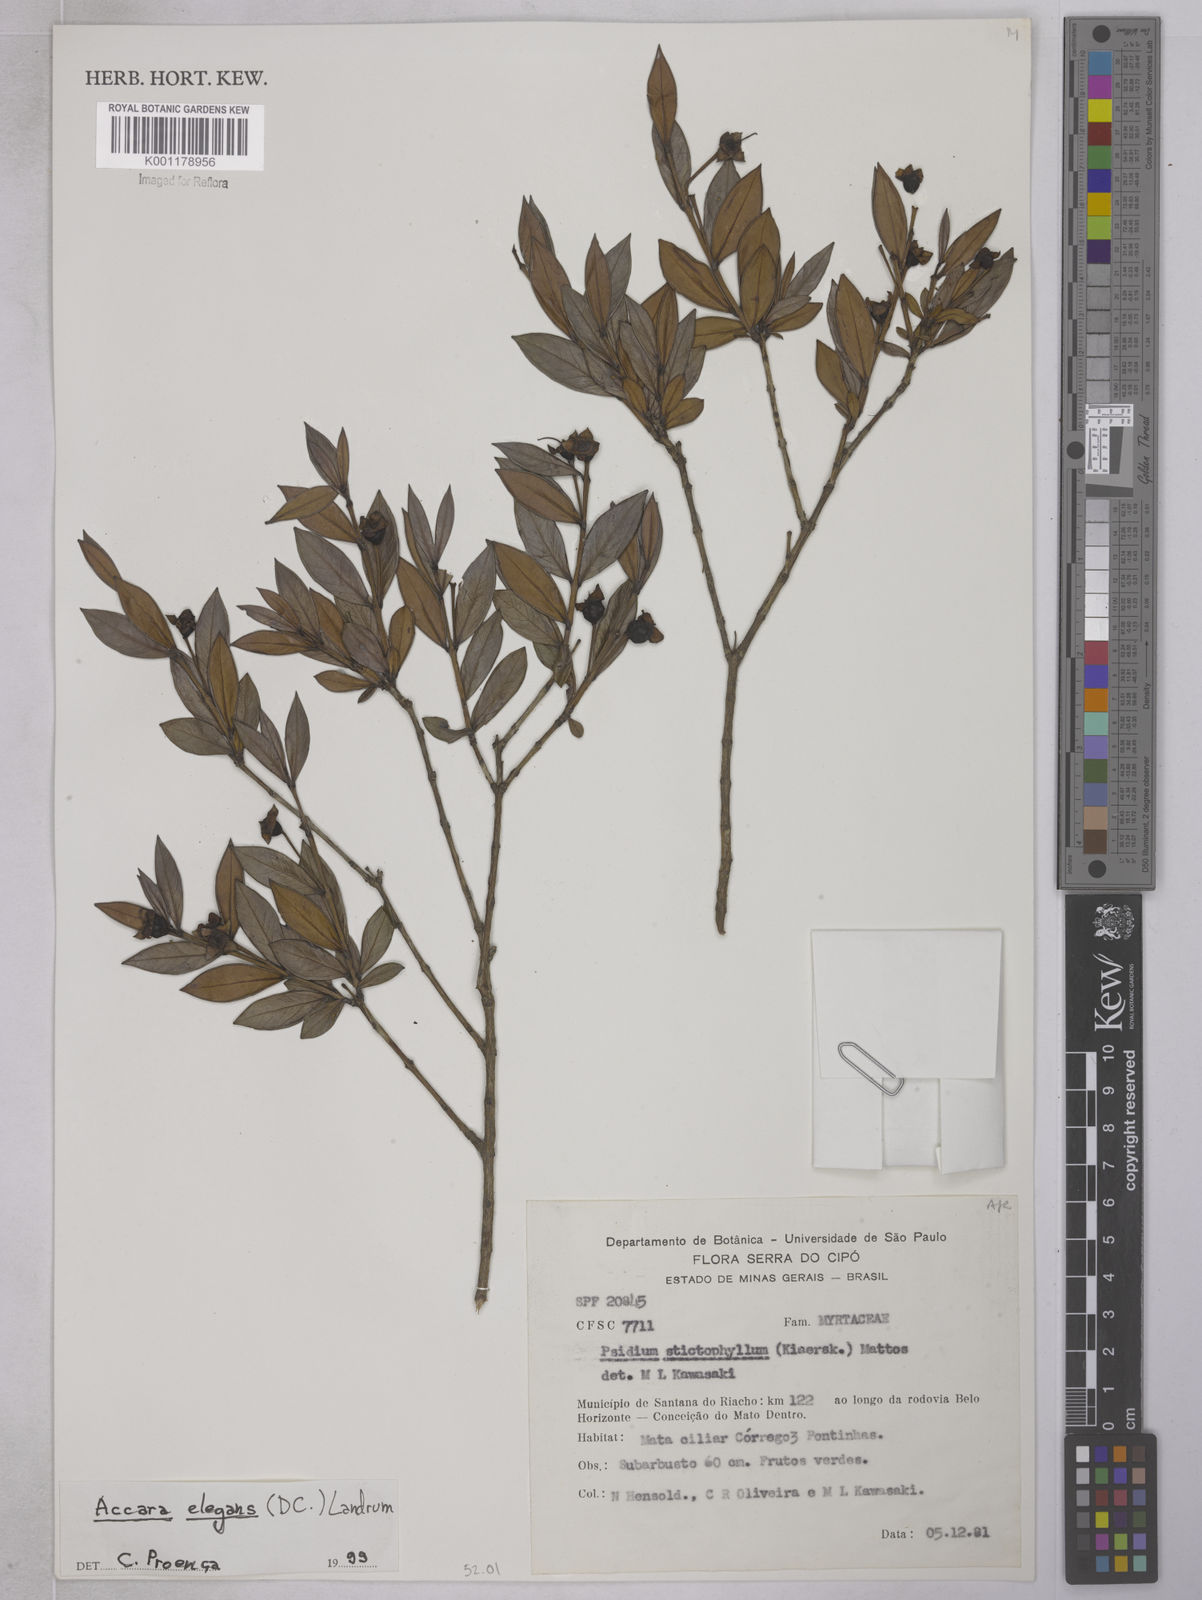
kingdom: Plantae
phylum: Tracheophyta
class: Magnoliopsida
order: Myrtales
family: Myrtaceae
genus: Accara
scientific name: Accara elegans
